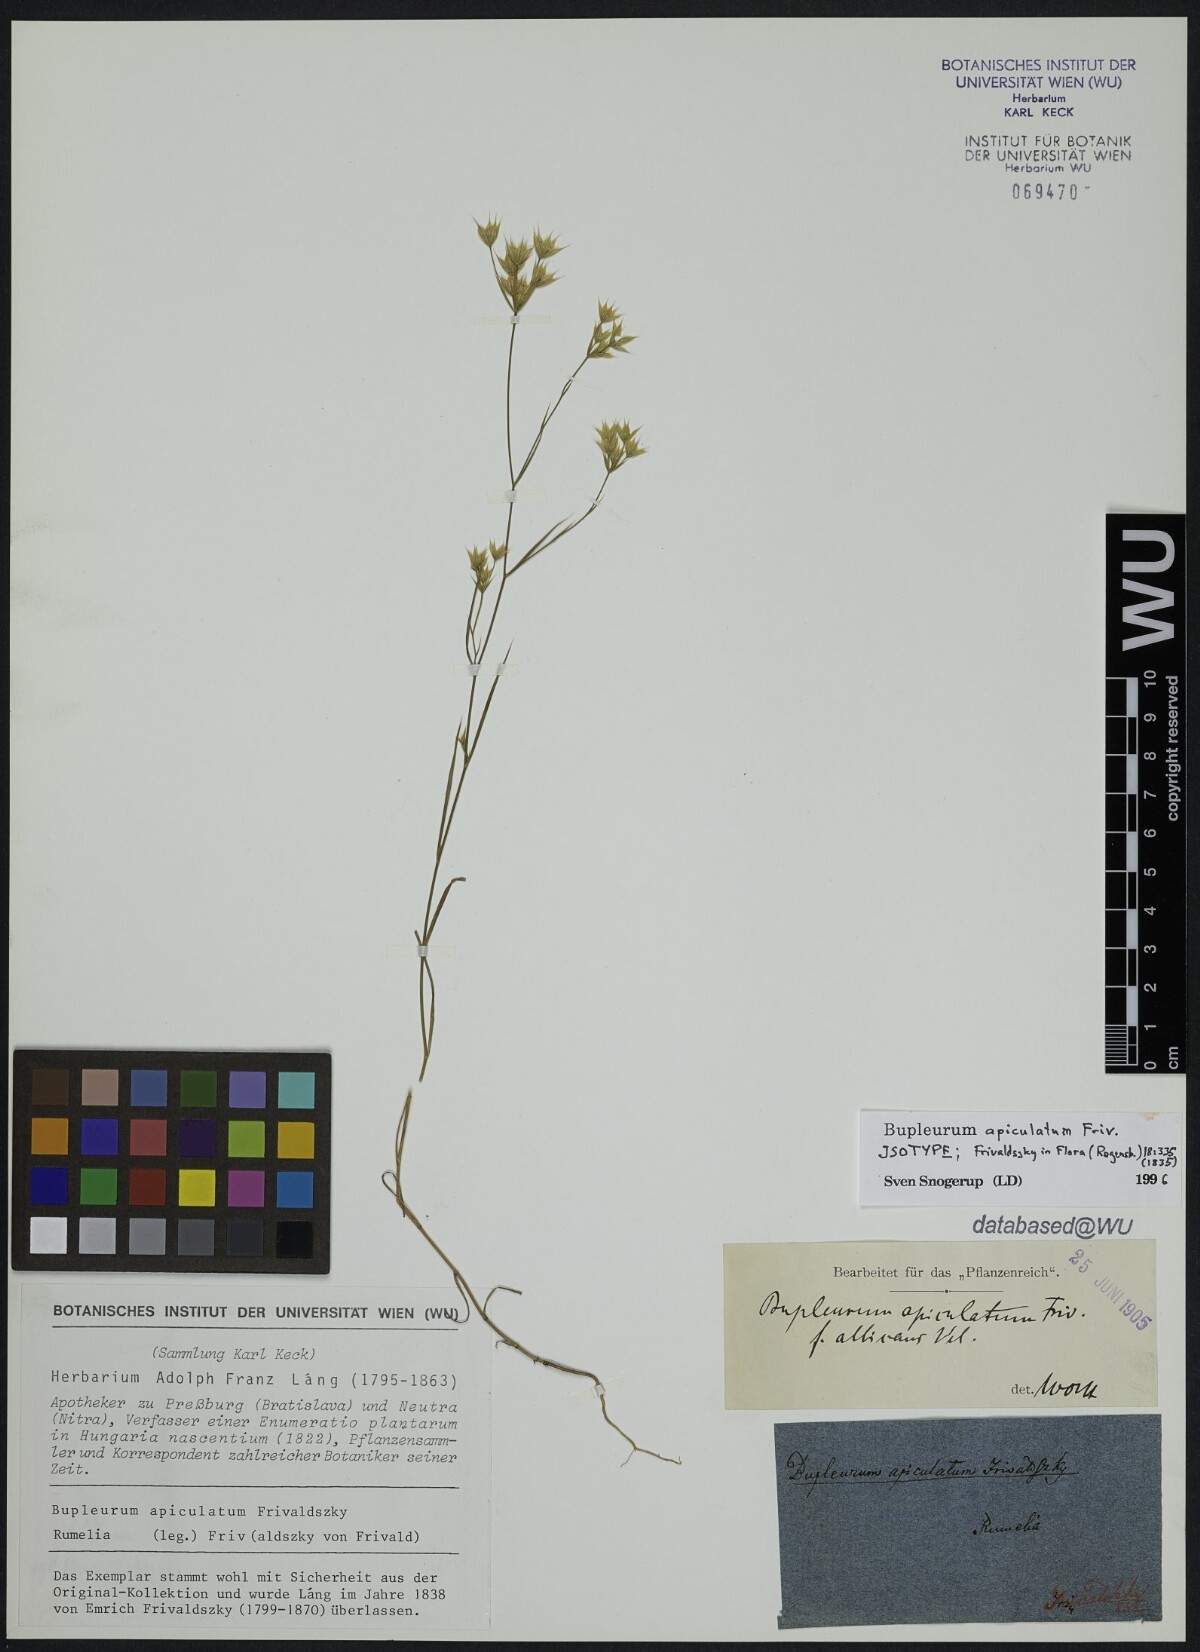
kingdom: Plantae
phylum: Tracheophyta
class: Magnoliopsida
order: Apiales
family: Apiaceae
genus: Bupleurum
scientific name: Bupleurum apiculatum
